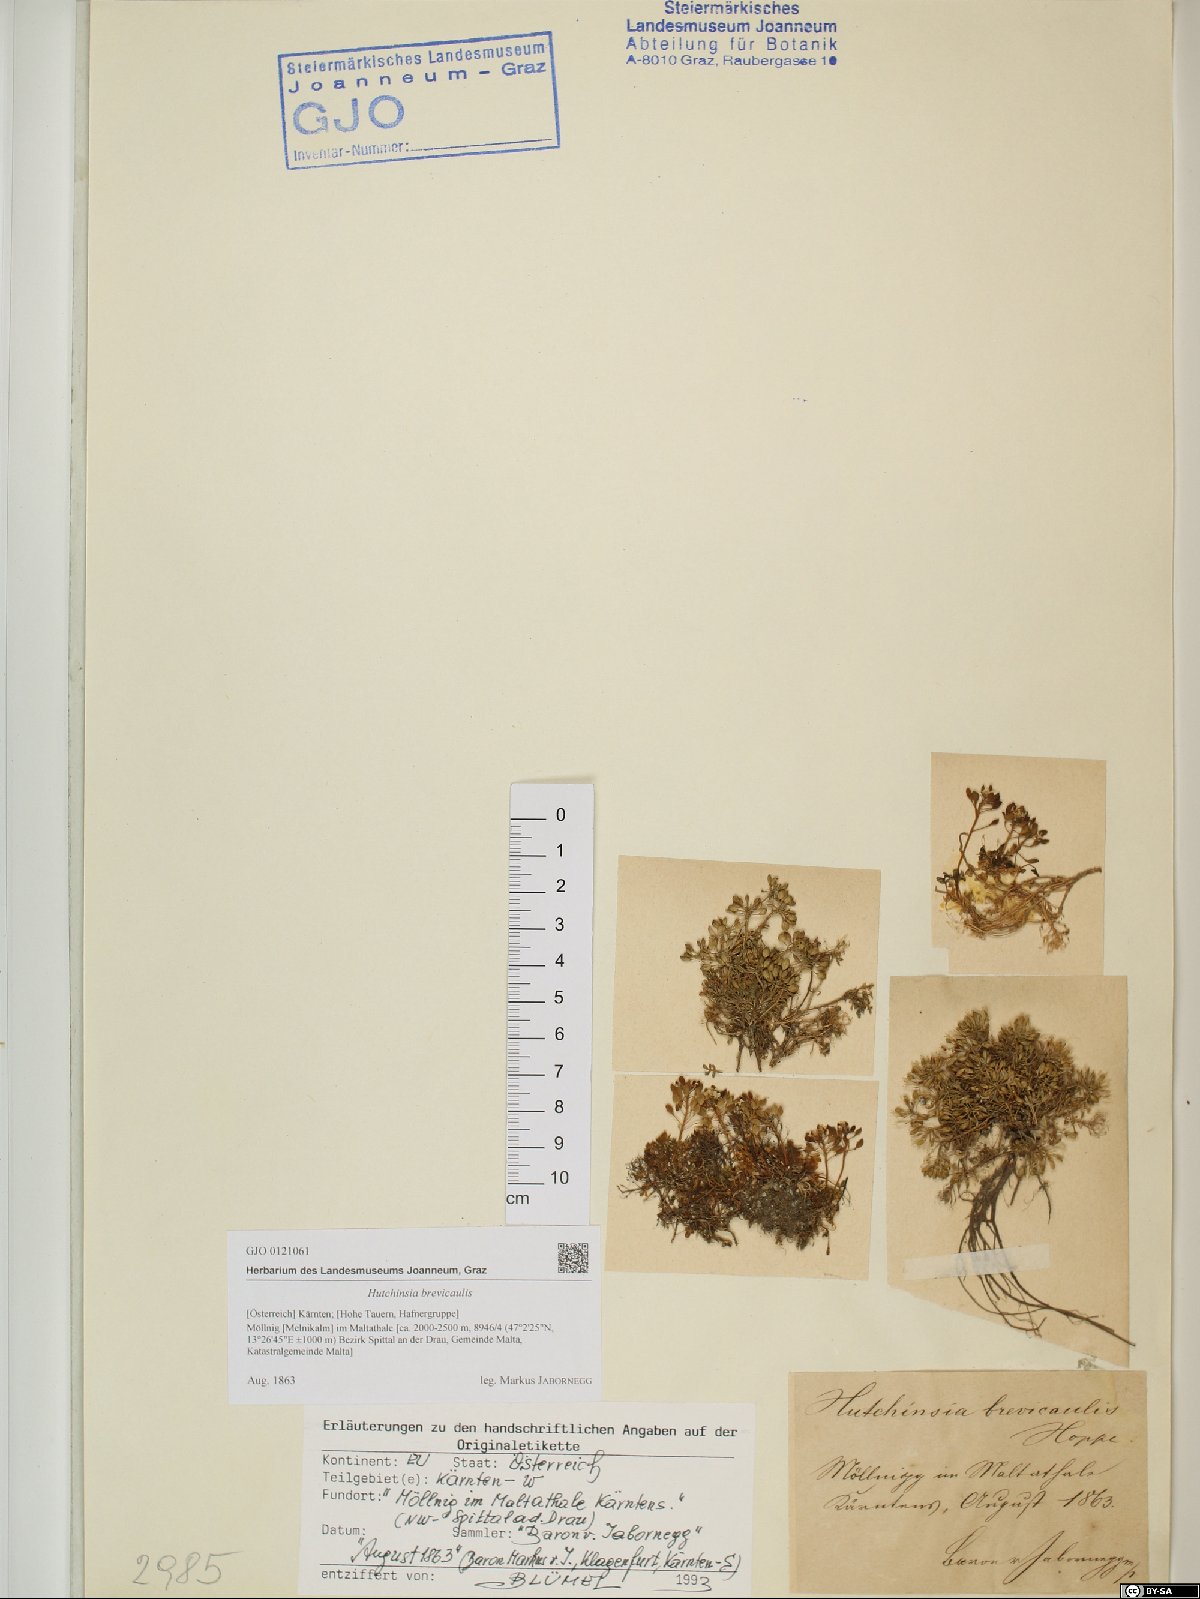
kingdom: Plantae
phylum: Tracheophyta
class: Magnoliopsida
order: Brassicales
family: Brassicaceae
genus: Hornungia
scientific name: Hornungia alpina
